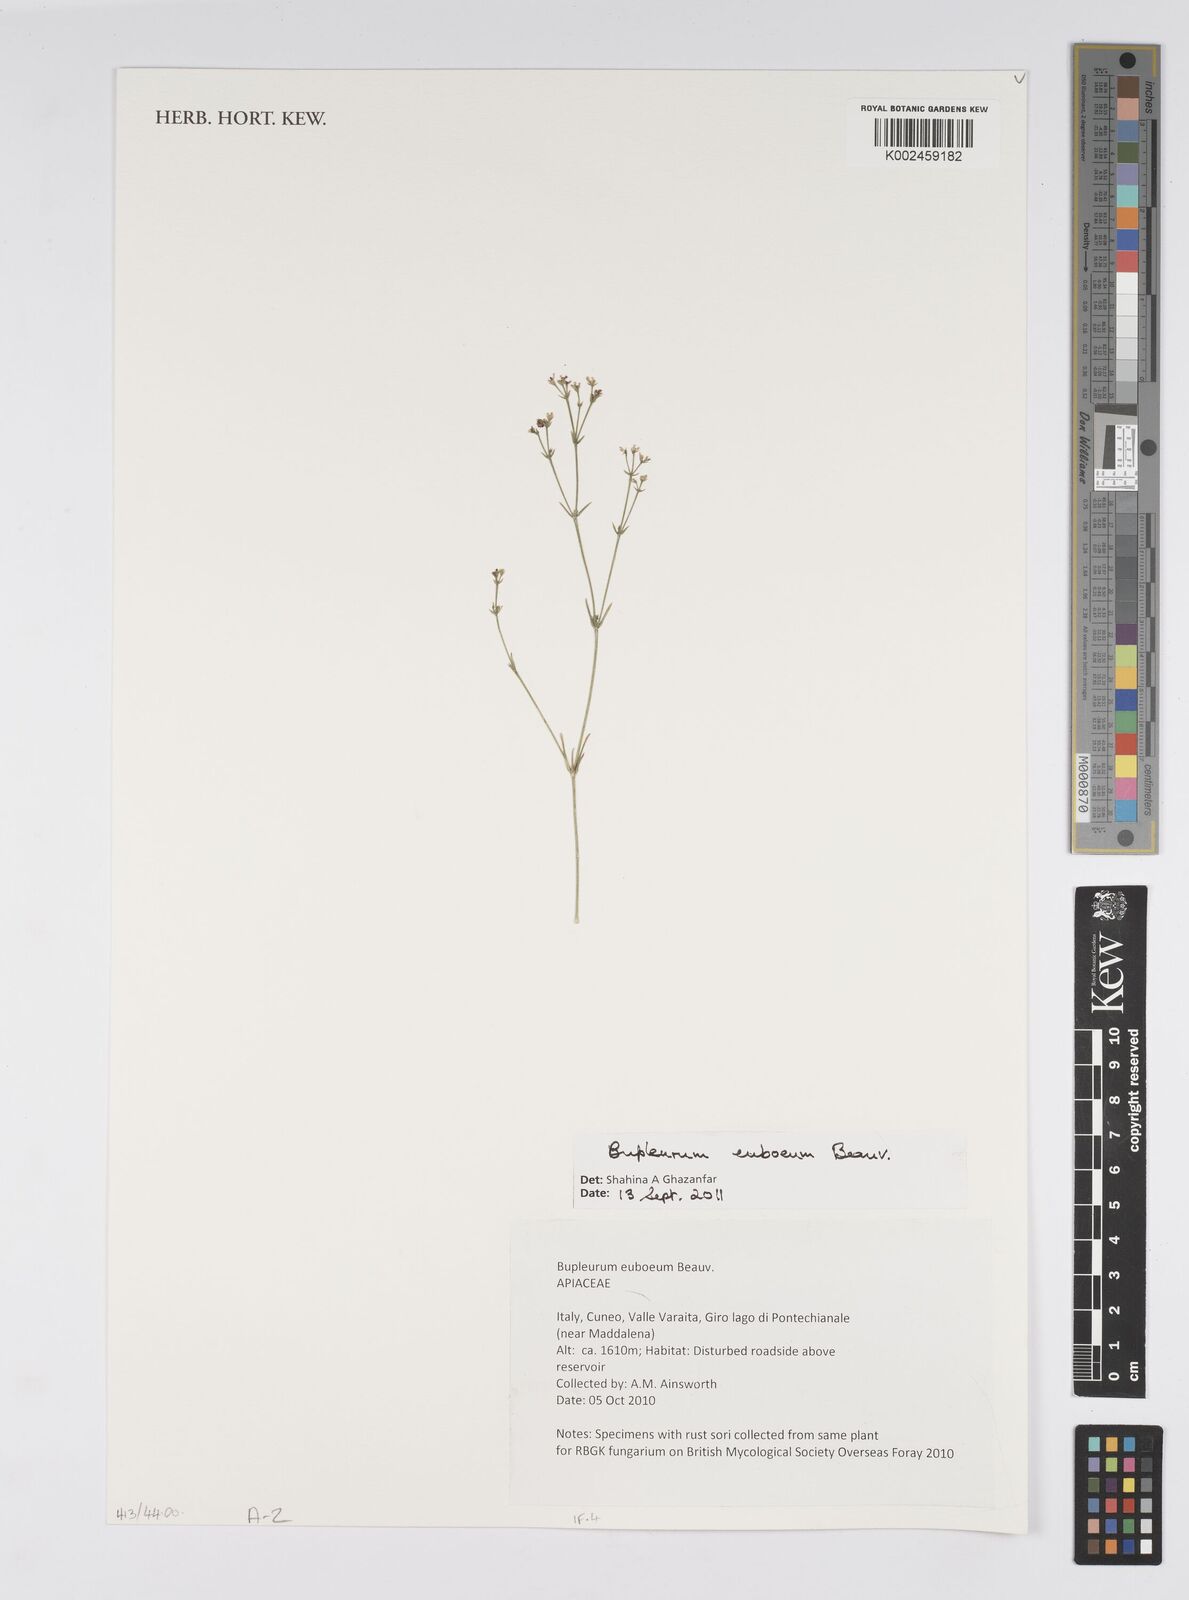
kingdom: Plantae
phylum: Tracheophyta
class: Magnoliopsida
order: Apiales
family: Apiaceae
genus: Bupleurum
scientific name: Bupleurum euboeum
